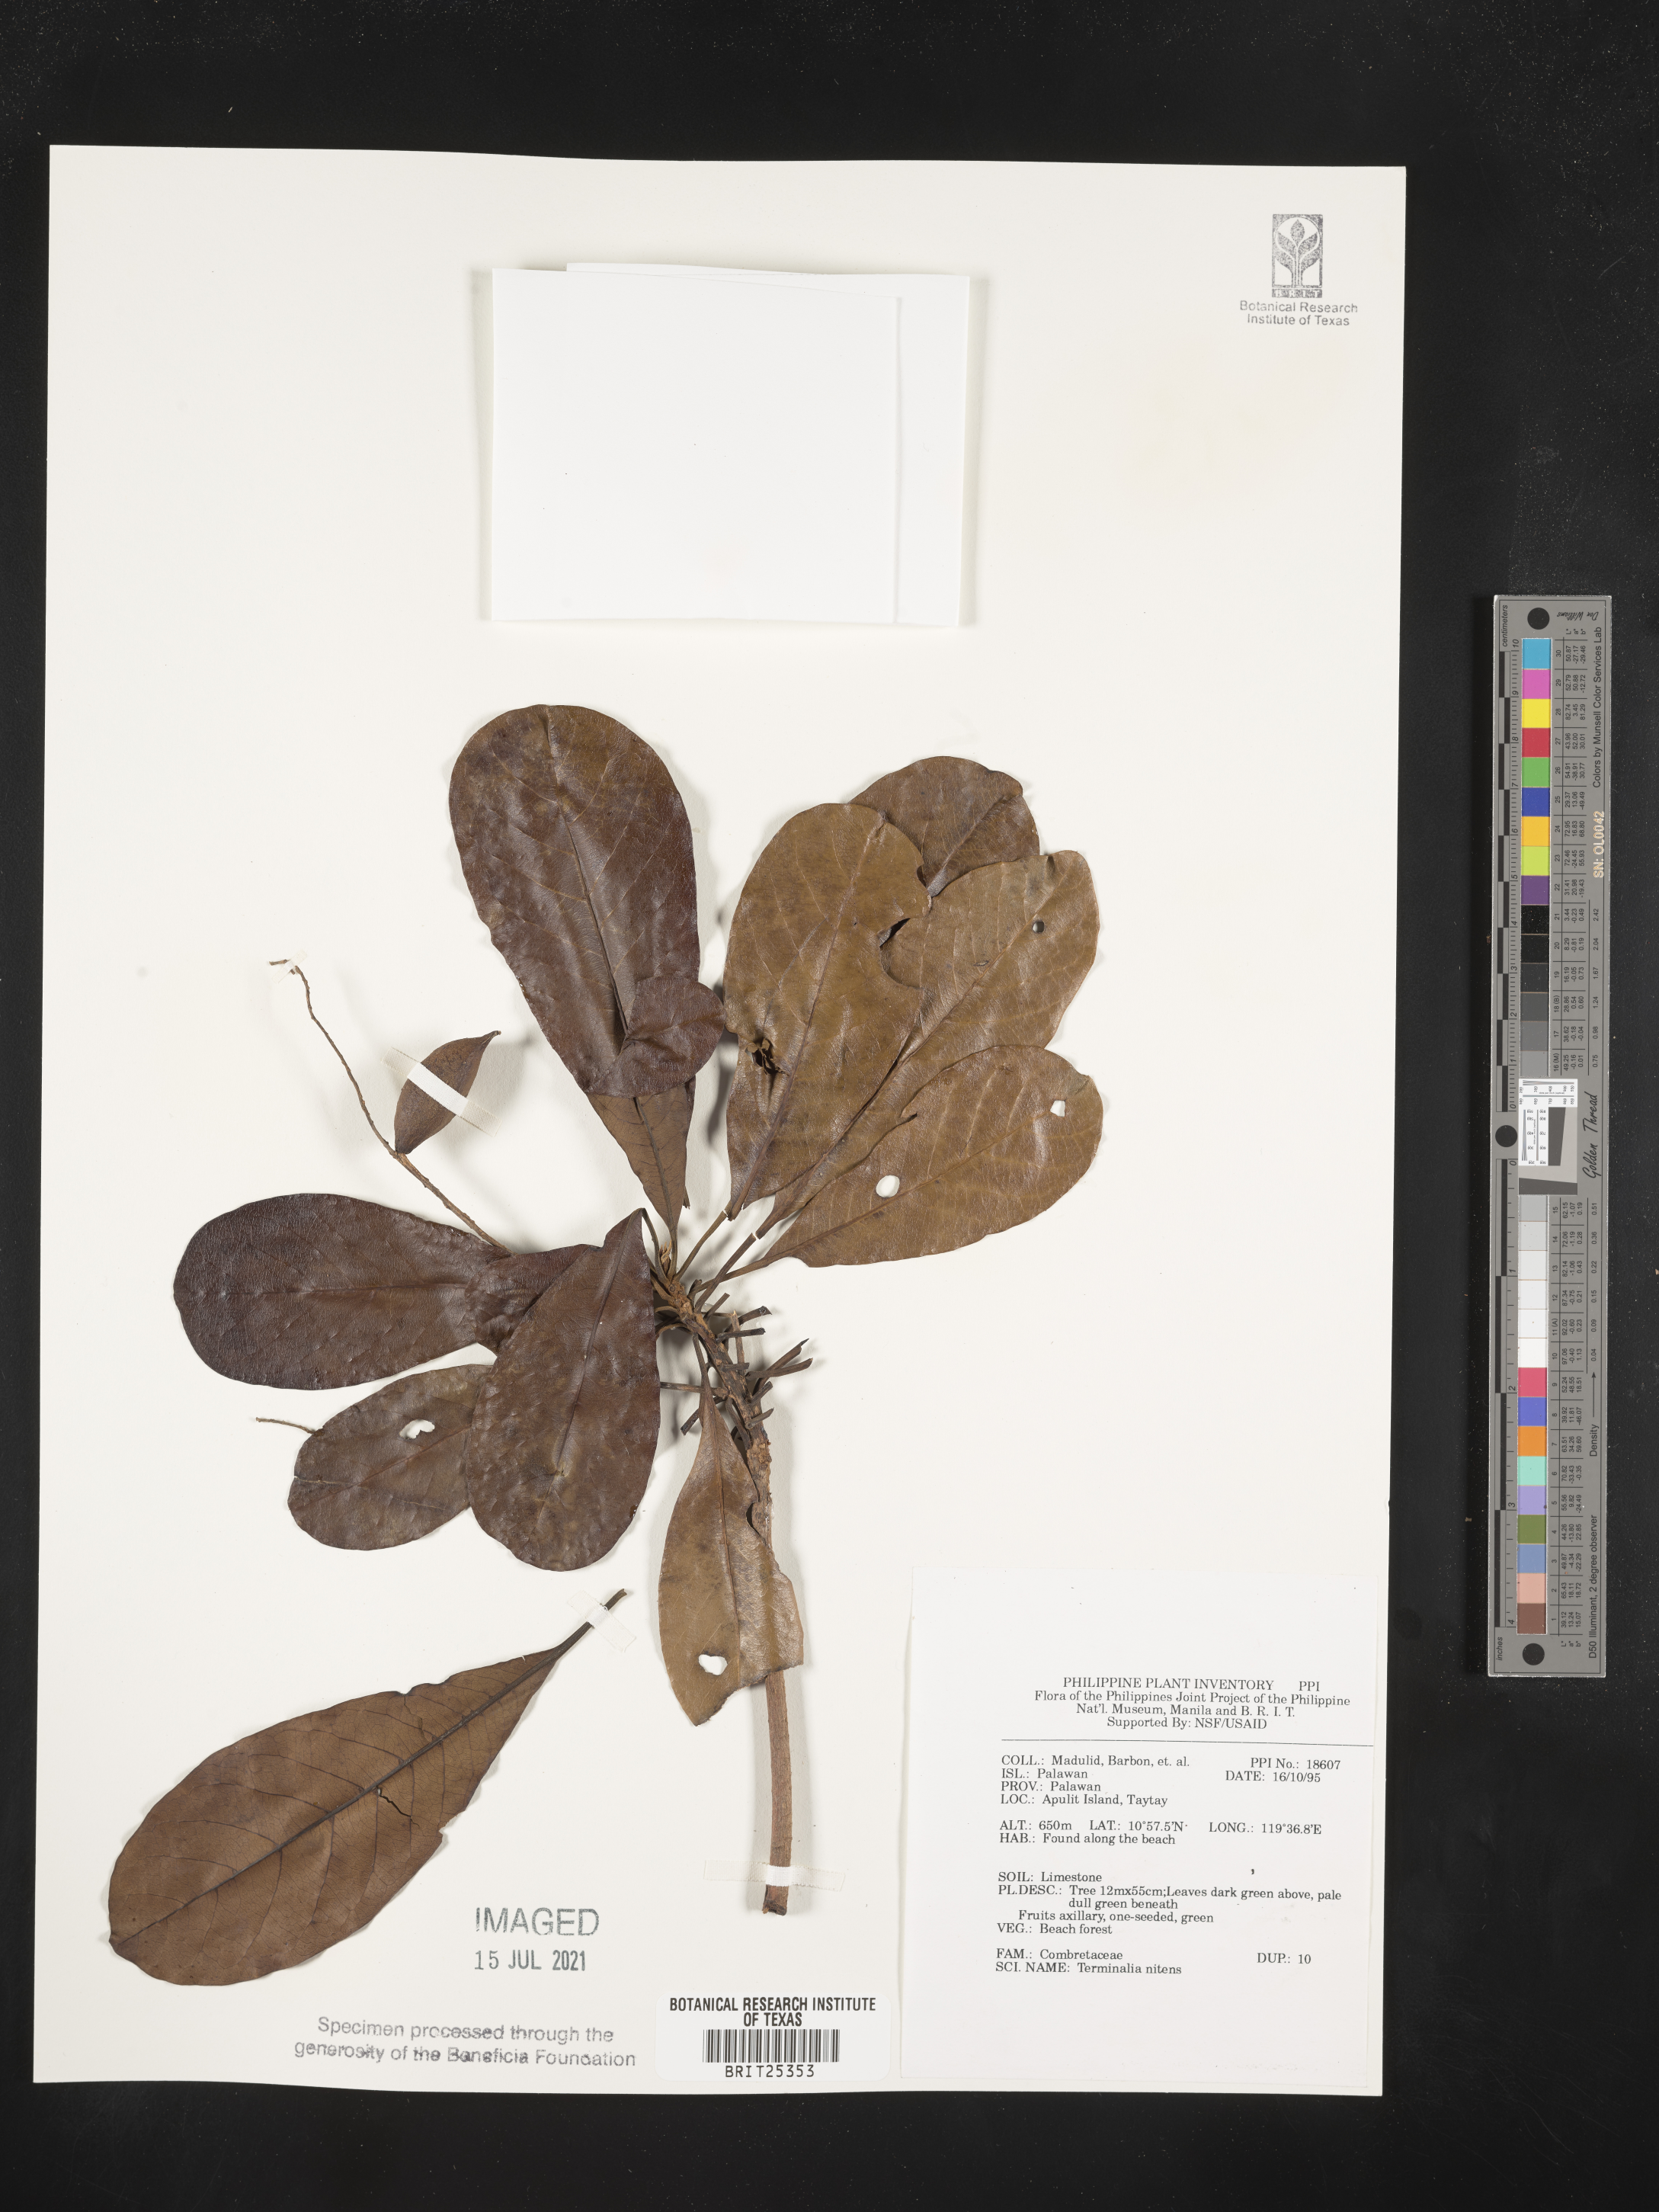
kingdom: Plantae
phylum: Tracheophyta
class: Magnoliopsida
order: Myrtales
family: Combretaceae
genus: Terminalia
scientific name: Terminalia nitens
